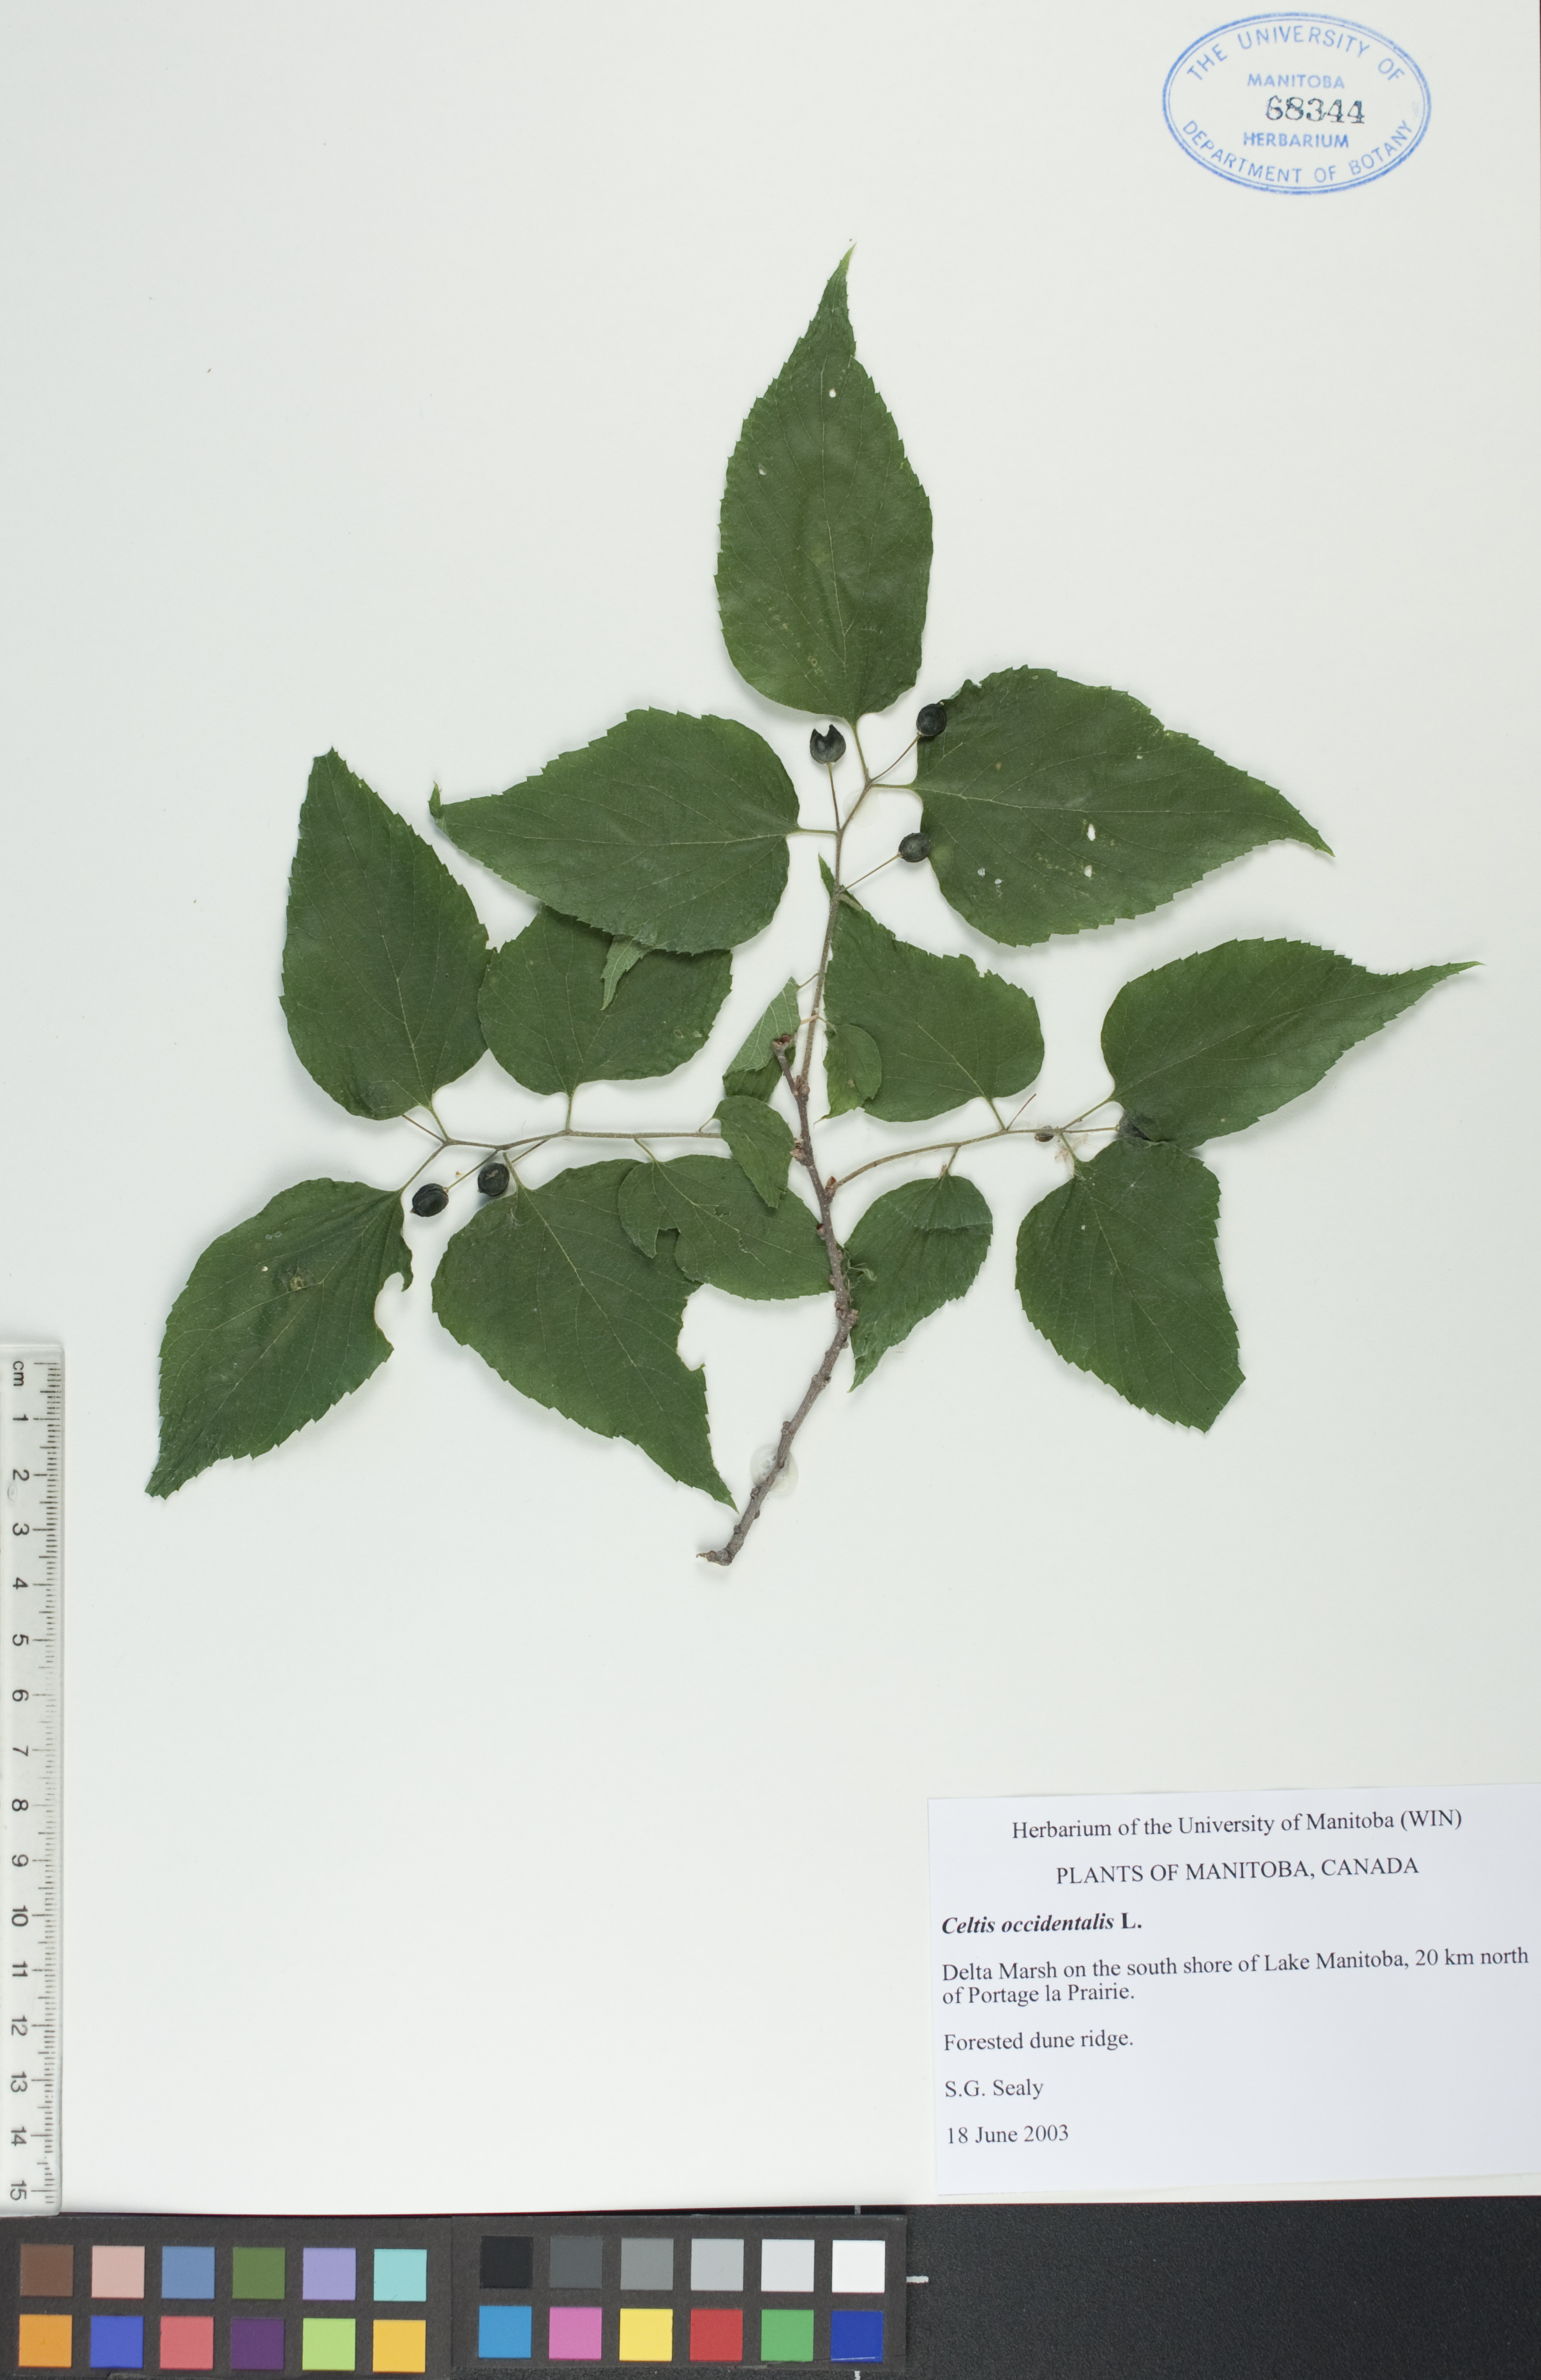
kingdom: Plantae
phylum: Tracheophyta
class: Magnoliopsida
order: Rosales
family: Cannabaceae
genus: Celtis
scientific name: Celtis occidentalis
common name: Common hackberry
